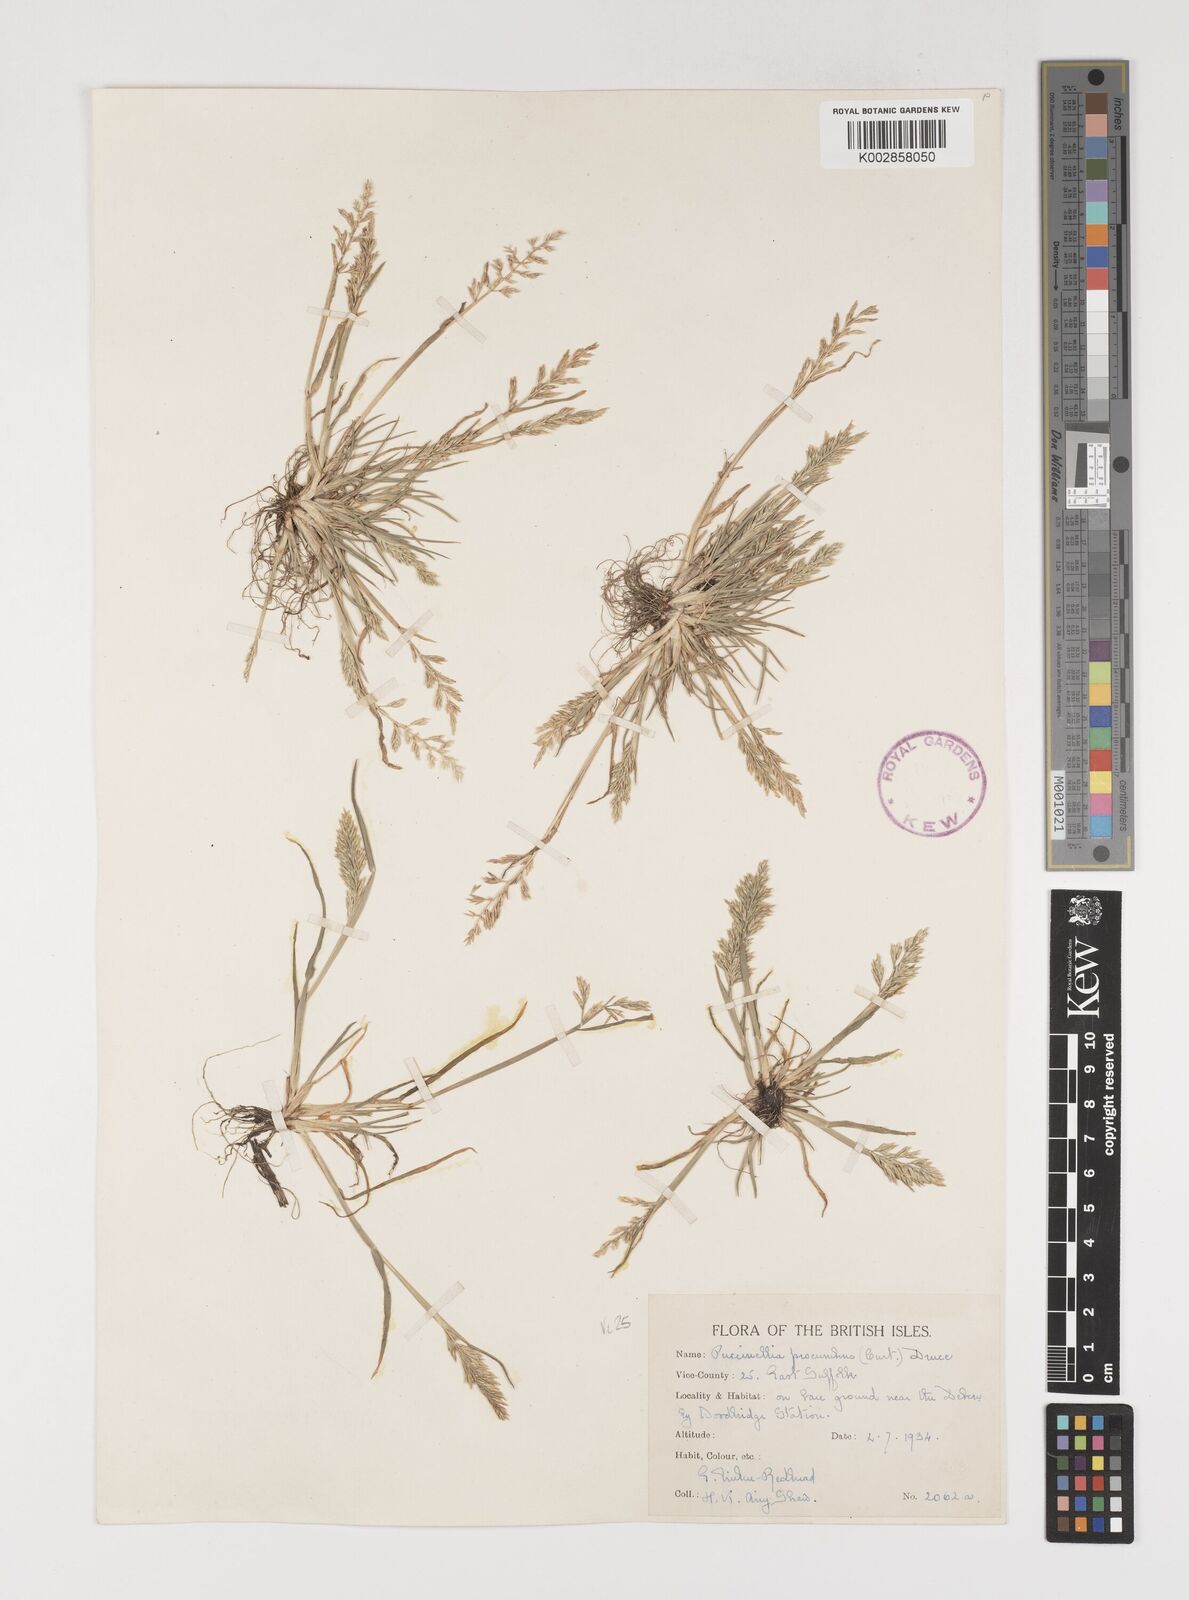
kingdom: Plantae
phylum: Tracheophyta
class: Liliopsida
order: Poales
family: Poaceae
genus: Puccinellia
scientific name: Puccinellia rupestris
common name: Stiff saltmarsh-grass
